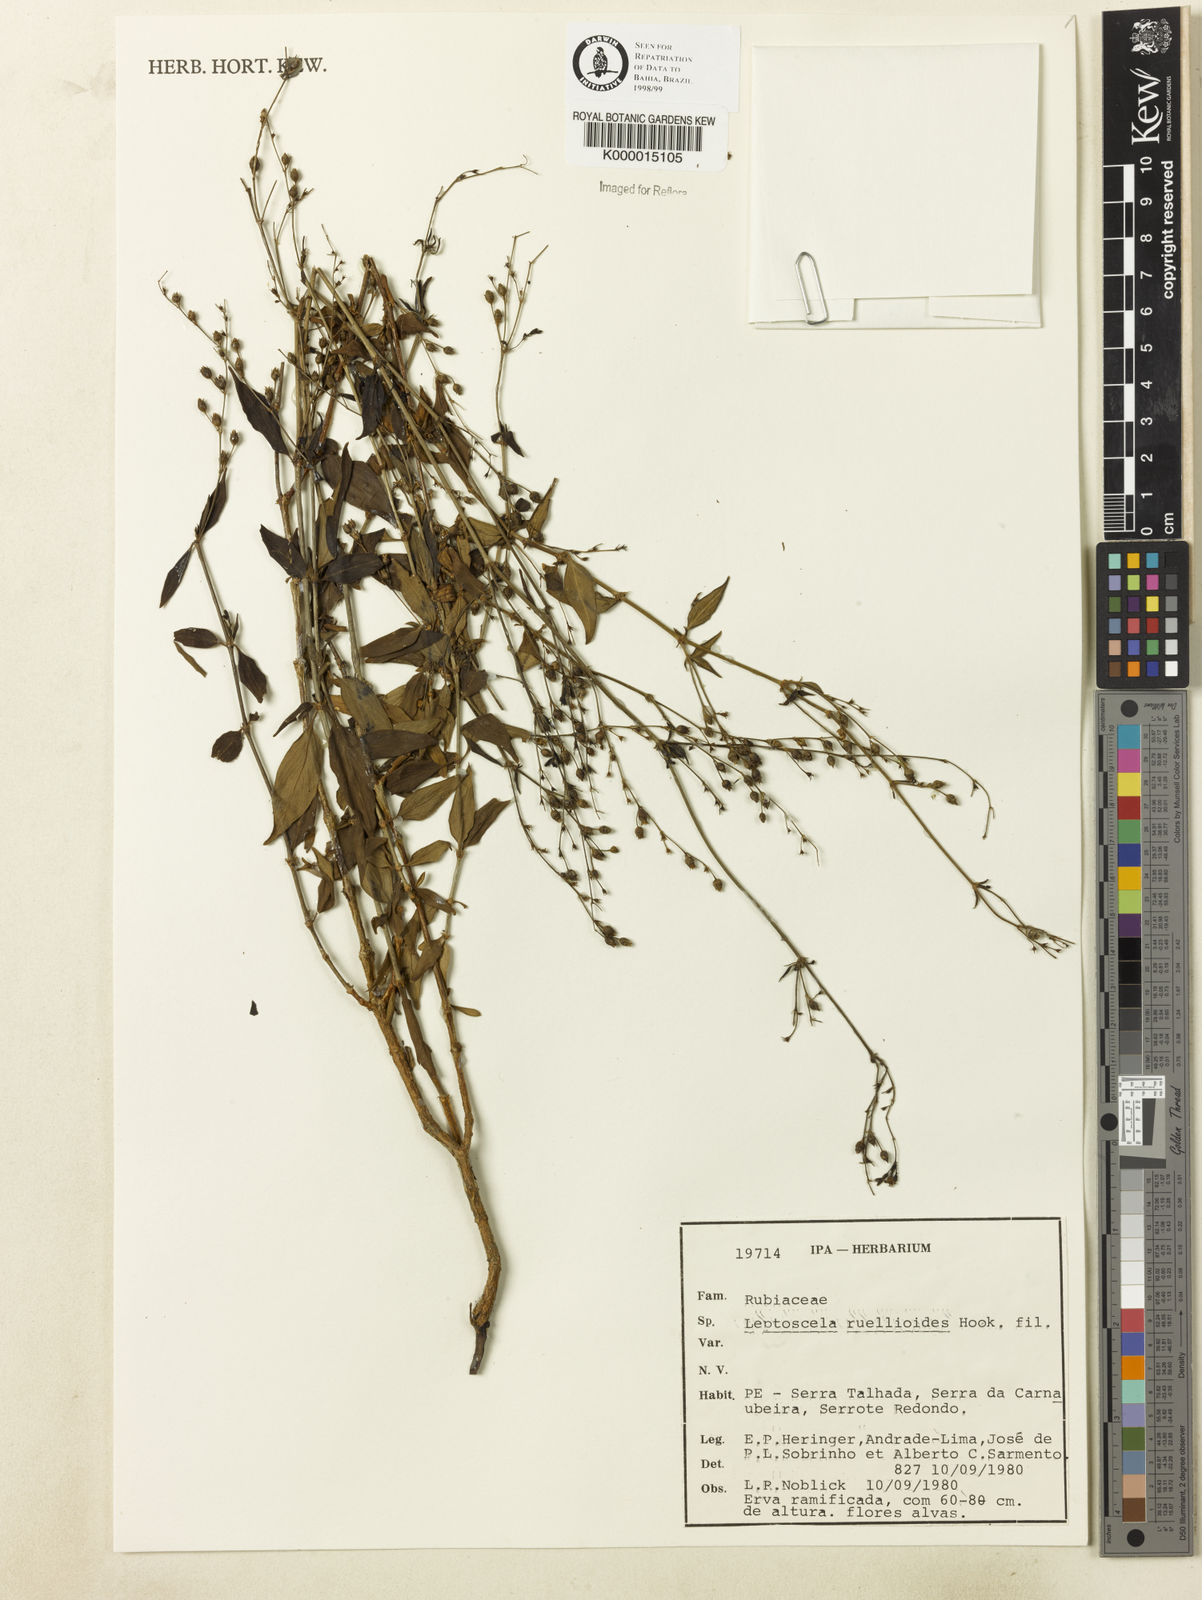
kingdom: Plantae
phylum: Tracheophyta
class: Magnoliopsida
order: Gentianales
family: Rubiaceae
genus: Leptoscela
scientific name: Leptoscela
